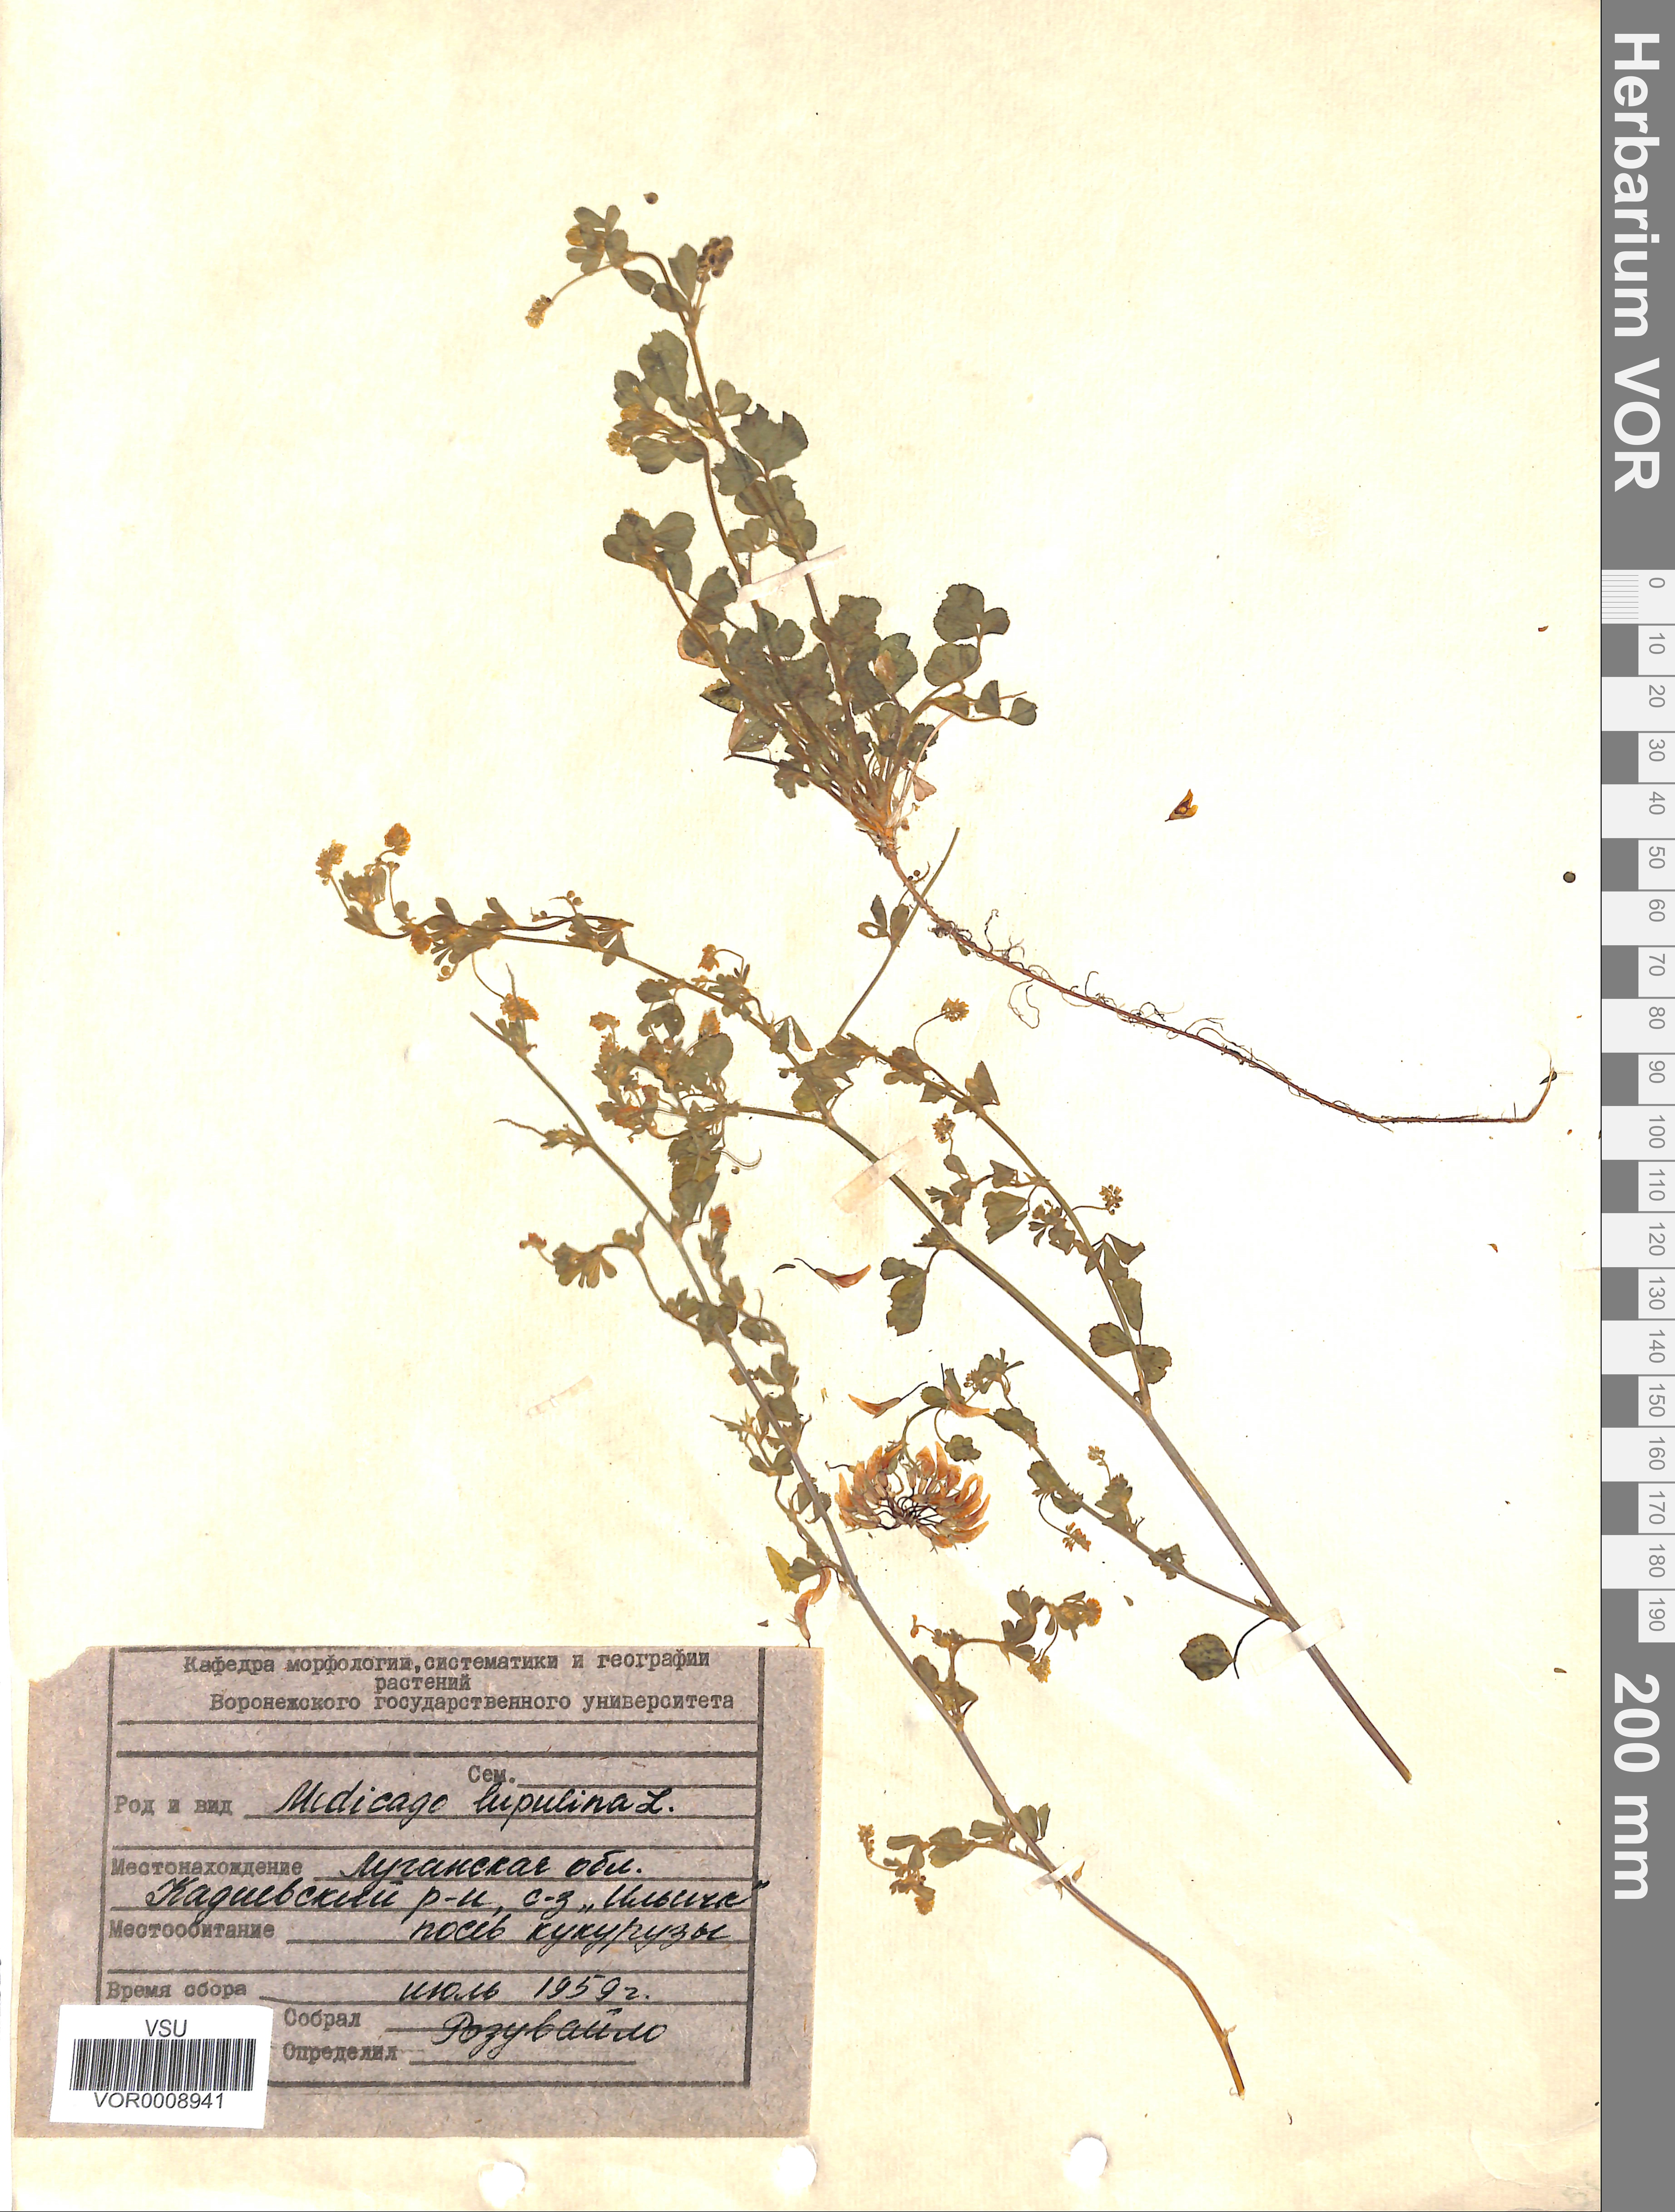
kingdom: Plantae
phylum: Tracheophyta
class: Magnoliopsida
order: Fabales
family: Fabaceae
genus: Medicago
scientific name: Medicago lupulina
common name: Black medick
